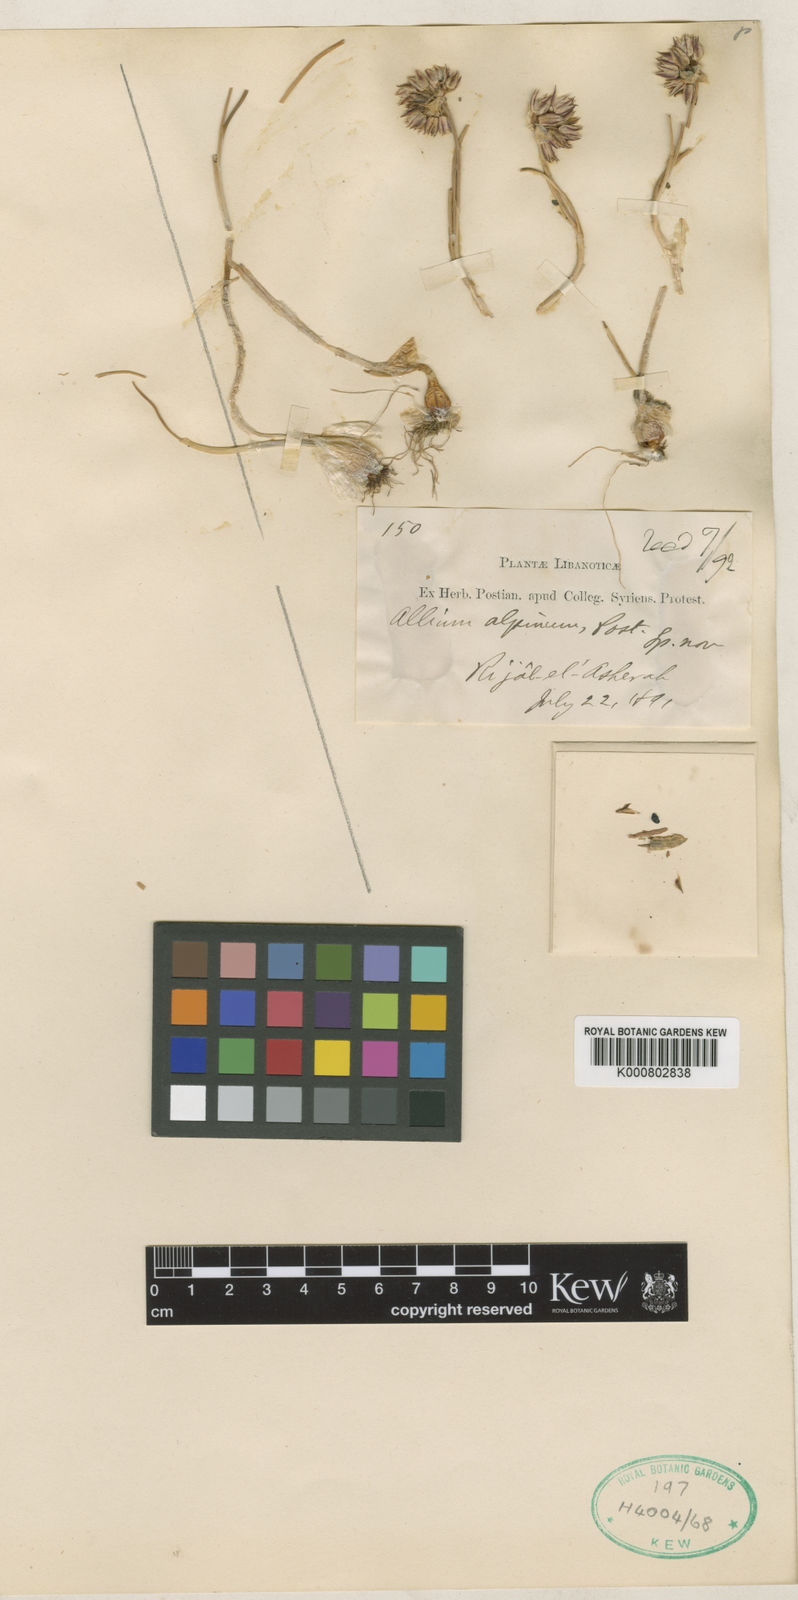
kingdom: Plantae
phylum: Tracheophyta
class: Liliopsida
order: Asparagales
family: Amaryllidaceae
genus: Allium
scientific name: Allium
